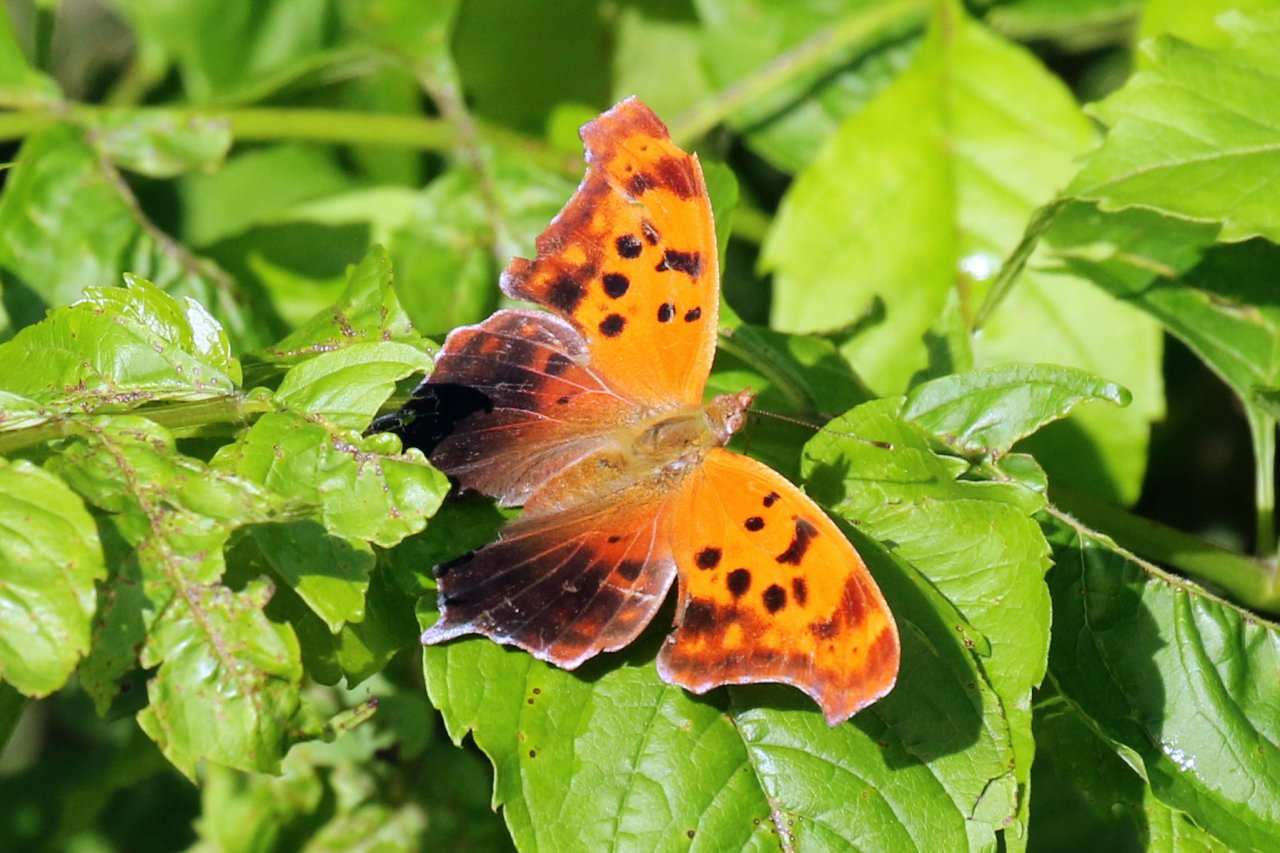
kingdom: Animalia
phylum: Arthropoda
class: Insecta
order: Lepidoptera
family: Nymphalidae
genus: Polygonia
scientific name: Polygonia interrogationis
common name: Question Mark
